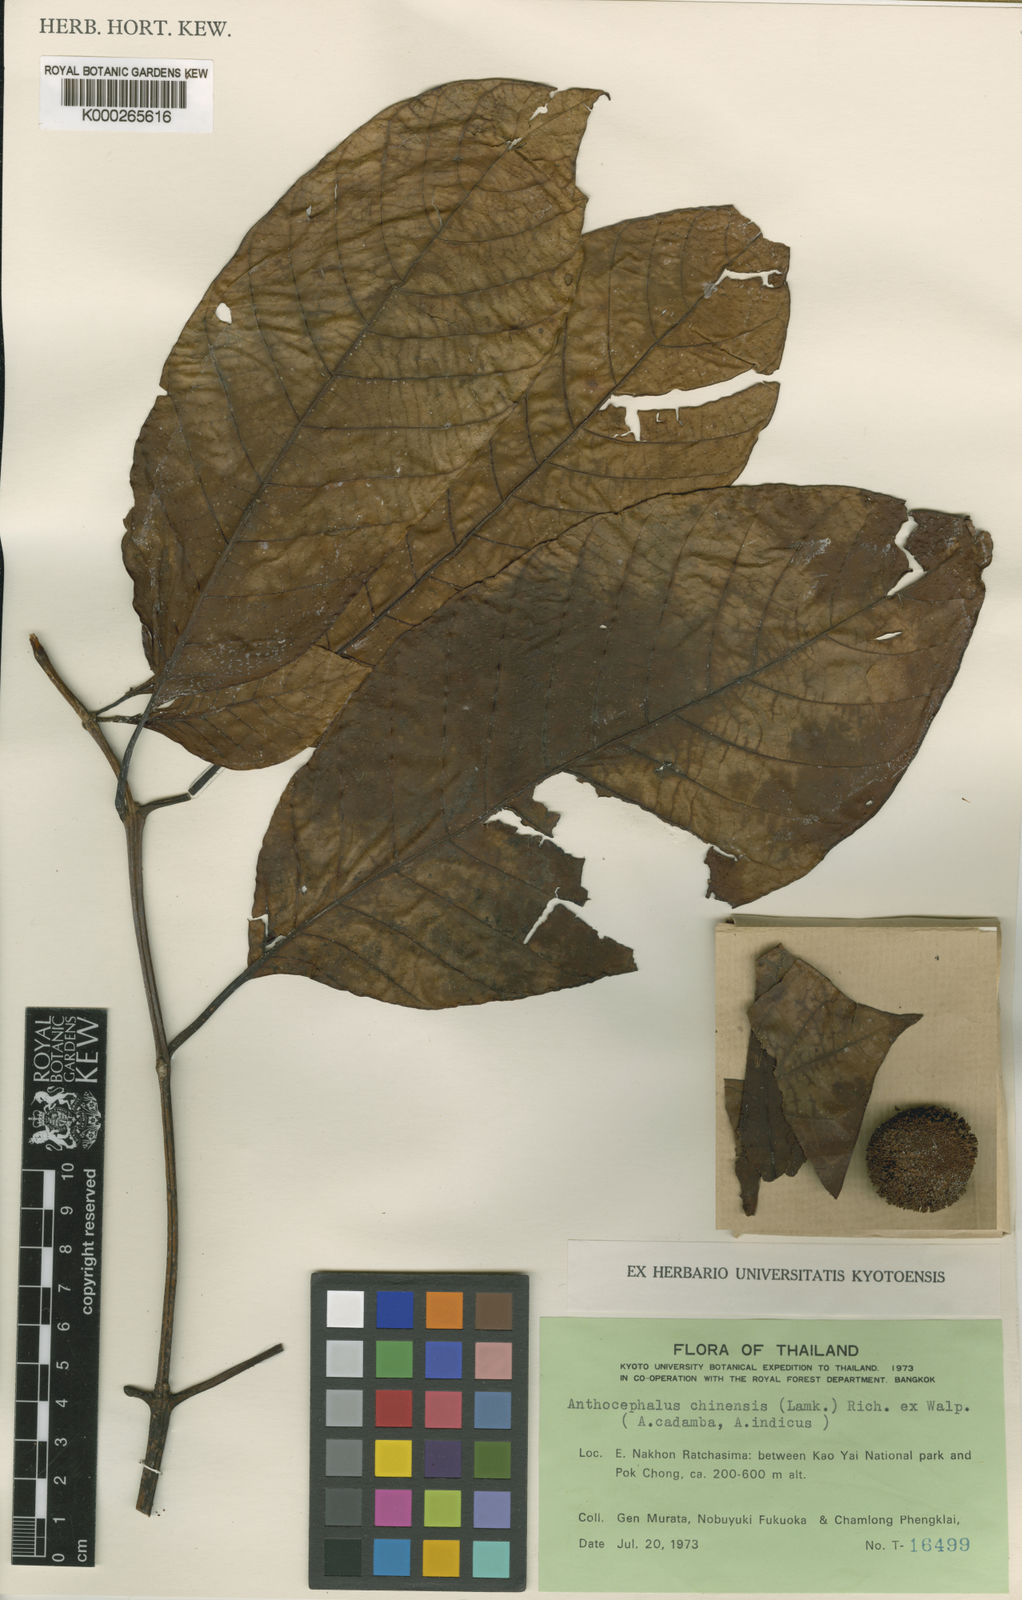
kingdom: Plantae
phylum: Tracheophyta
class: Magnoliopsida
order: Gentianales
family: Rubiaceae
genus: Neolamarckia
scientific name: Neolamarckia cadamba
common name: Leichhardt-pine
